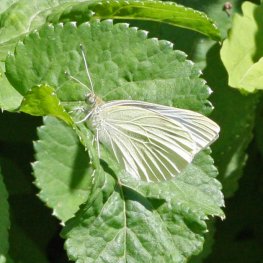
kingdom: Animalia
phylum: Arthropoda
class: Insecta
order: Lepidoptera
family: Pieridae
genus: Pieris
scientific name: Pieris rapae
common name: Cabbage White
